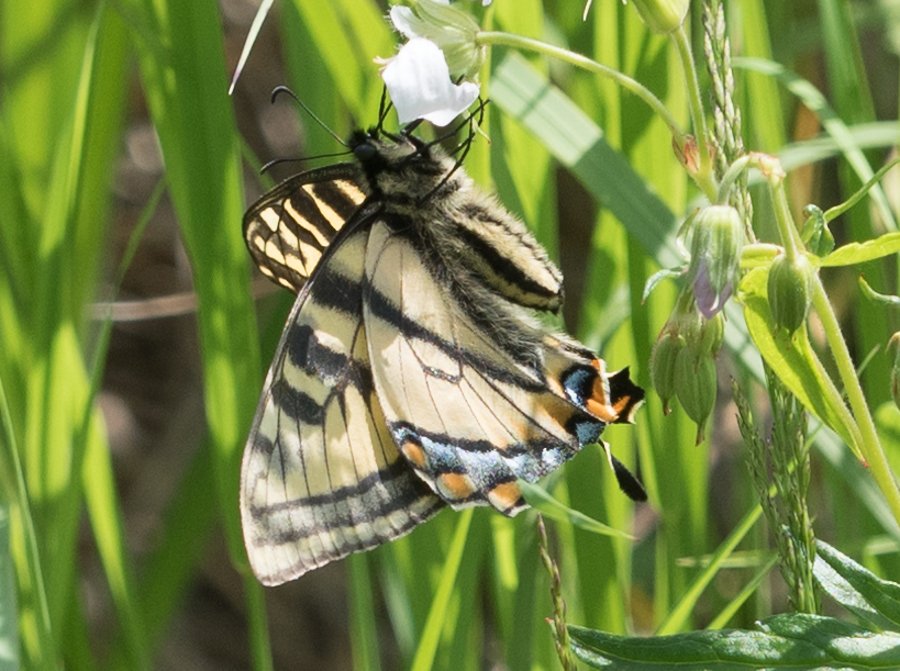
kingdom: Animalia
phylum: Arthropoda
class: Insecta
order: Lepidoptera
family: Papilionidae
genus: Pterourus
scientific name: Pterourus canadensis
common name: Canadian Tiger Swallowtail
